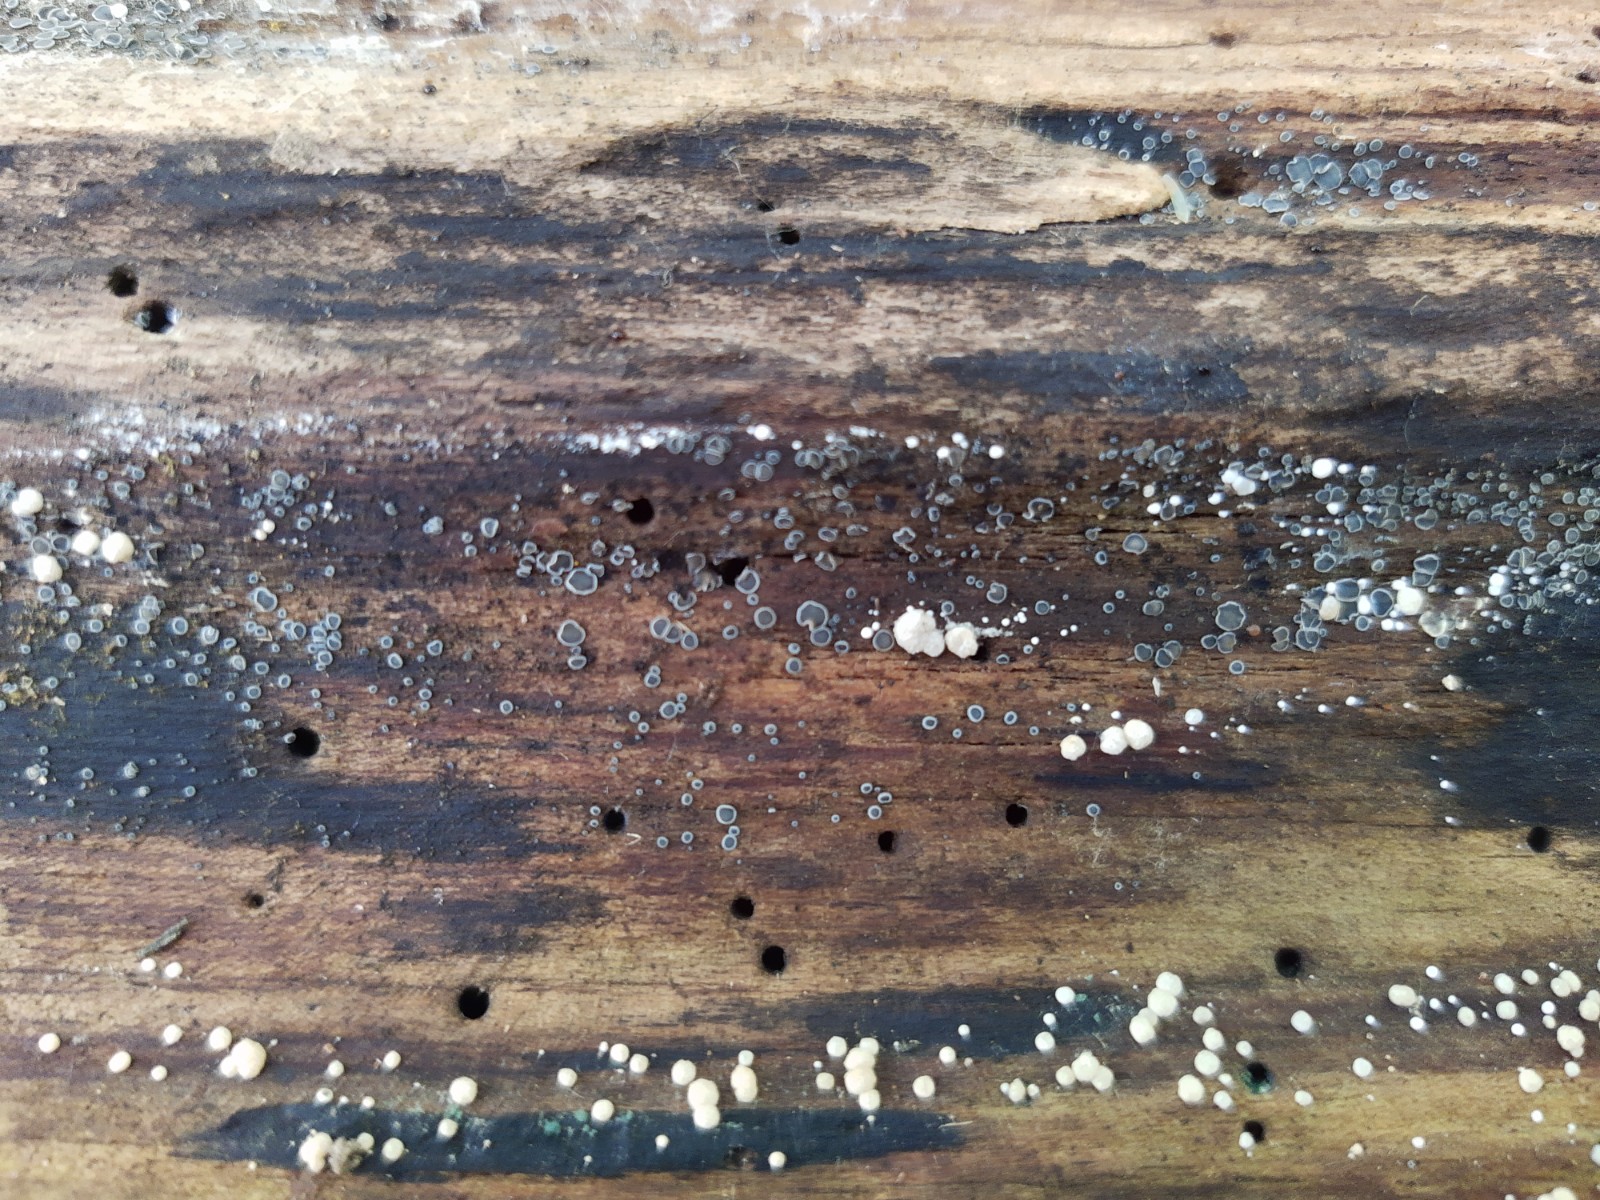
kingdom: Fungi
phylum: Ascomycota
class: Leotiomycetes
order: Helotiales
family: Mollisiaceae
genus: Mollisia
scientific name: Mollisia cinerea
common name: almindelig gråskive
